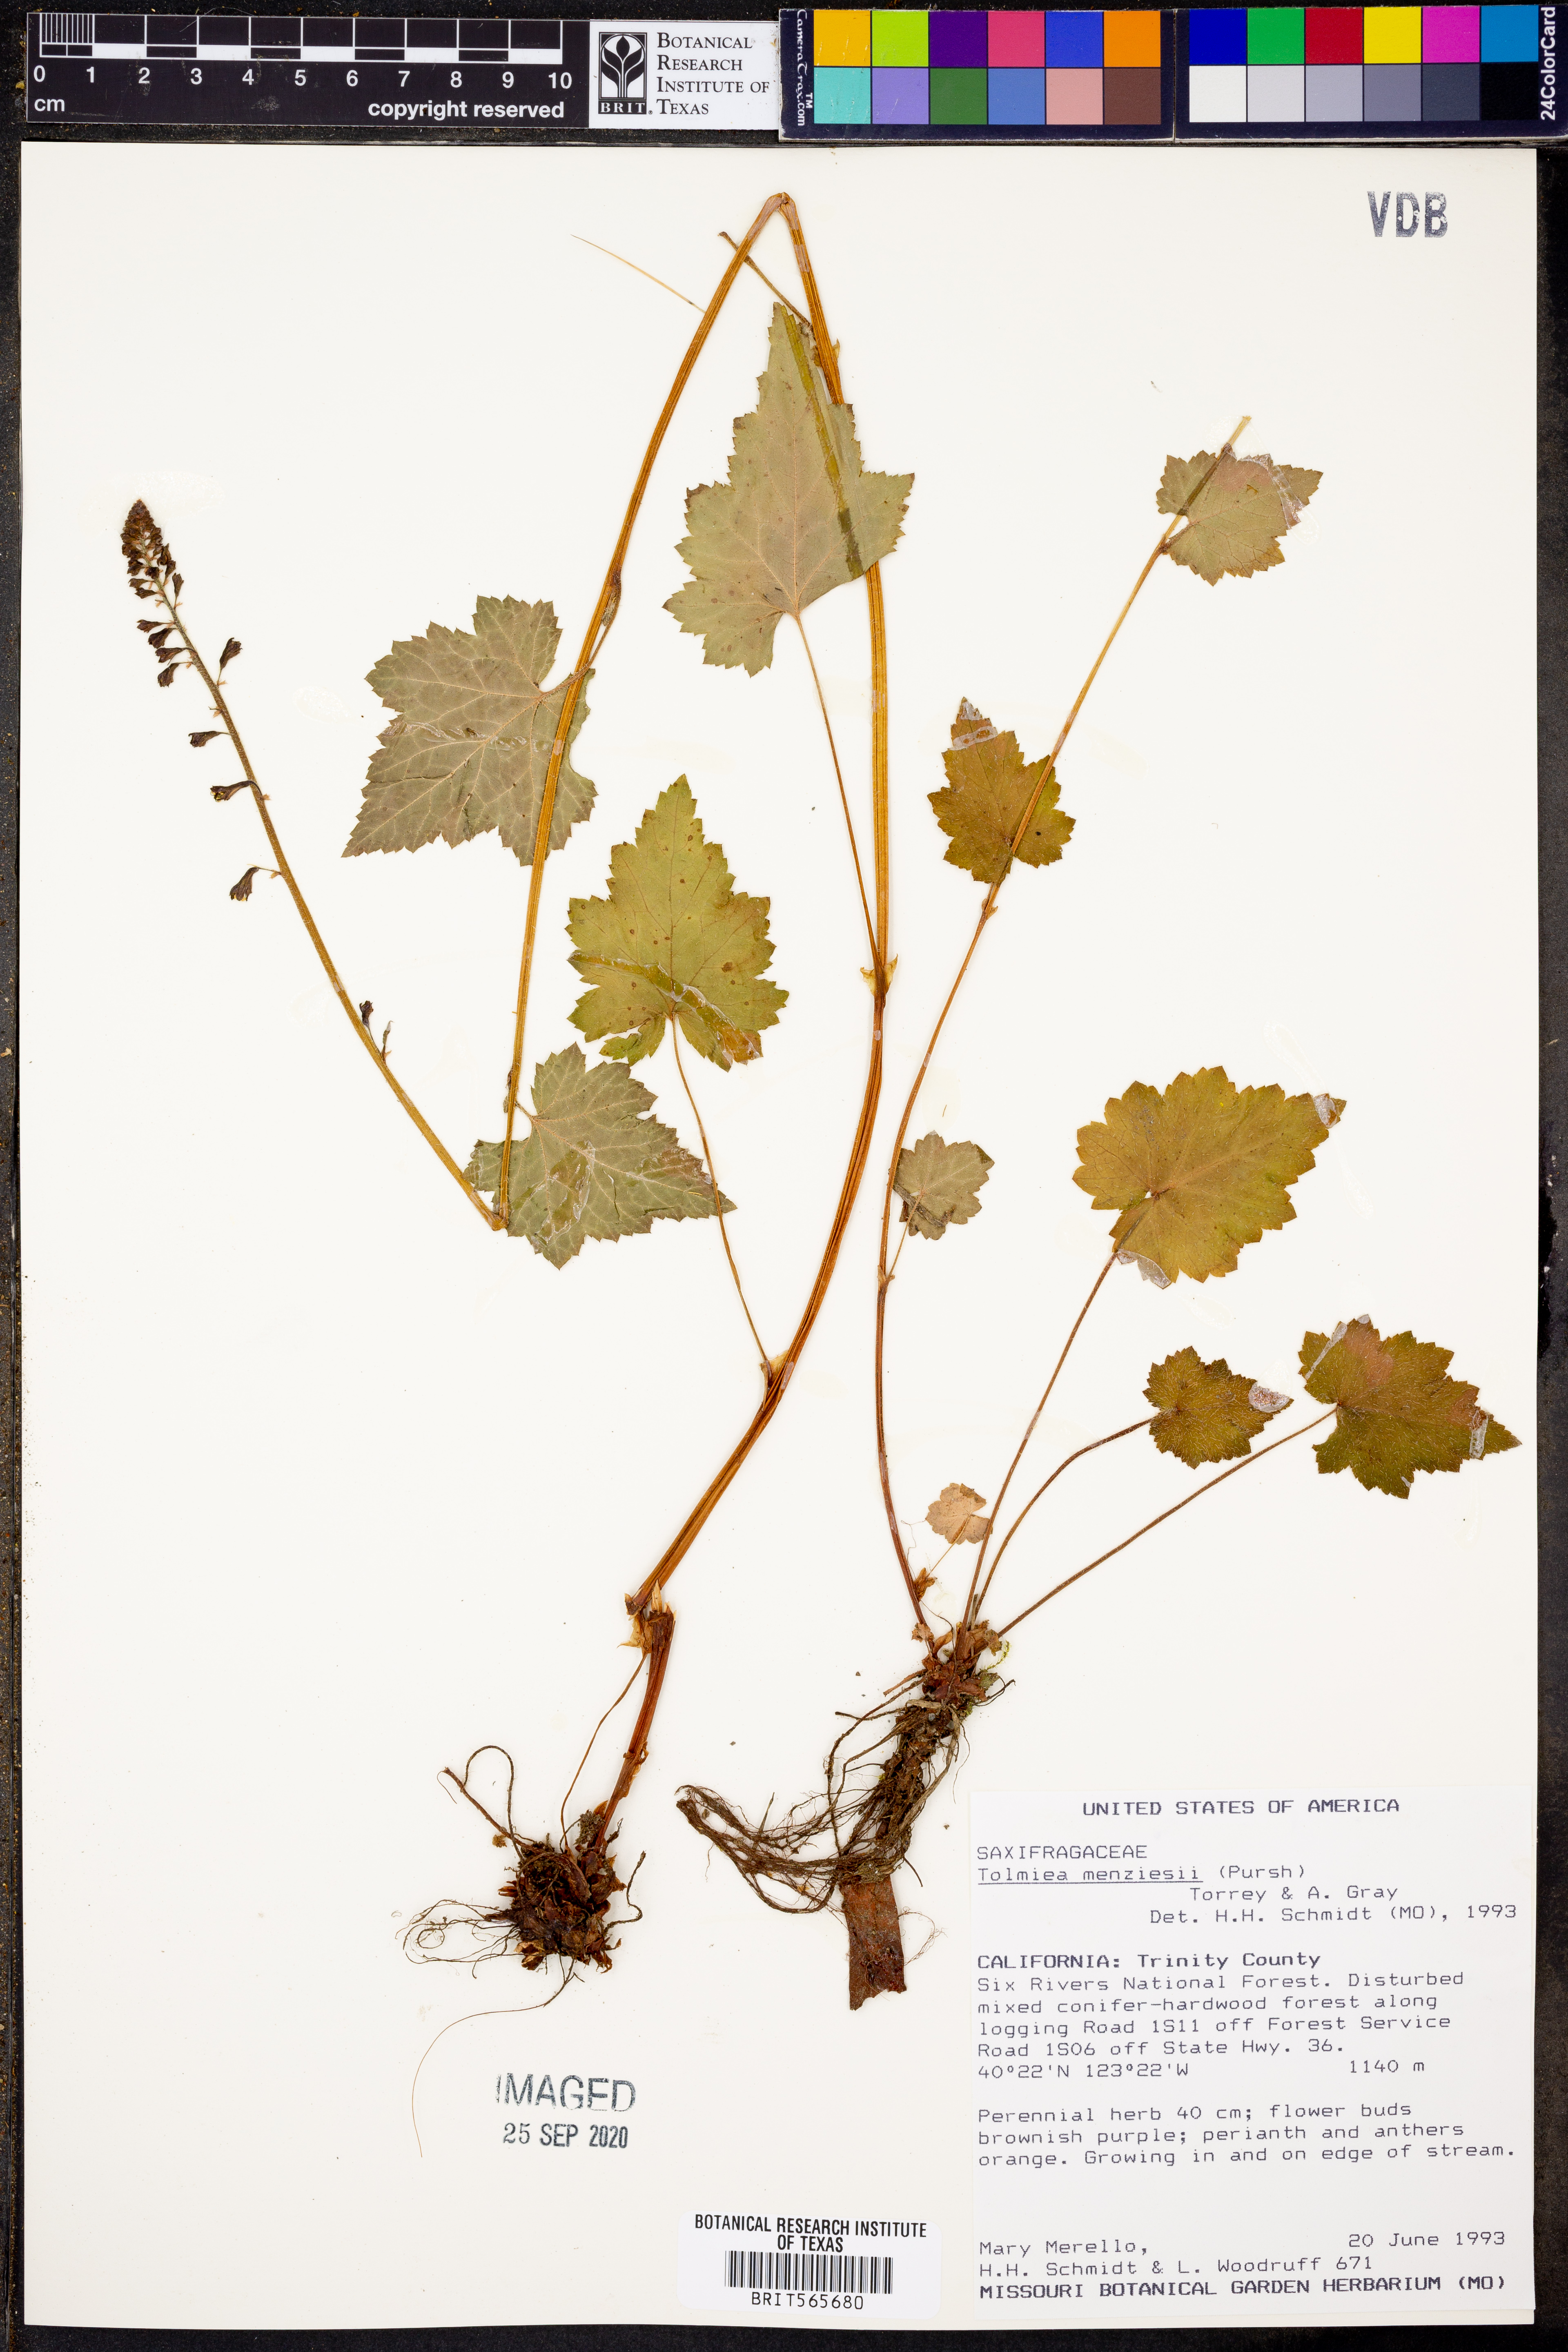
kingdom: Plantae
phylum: Tracheophyta
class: Magnoliopsida
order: Saxifragales
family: Saxifragaceae
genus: Tolmiea
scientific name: Tolmiea menziesii
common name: Pick-a-back-plant
